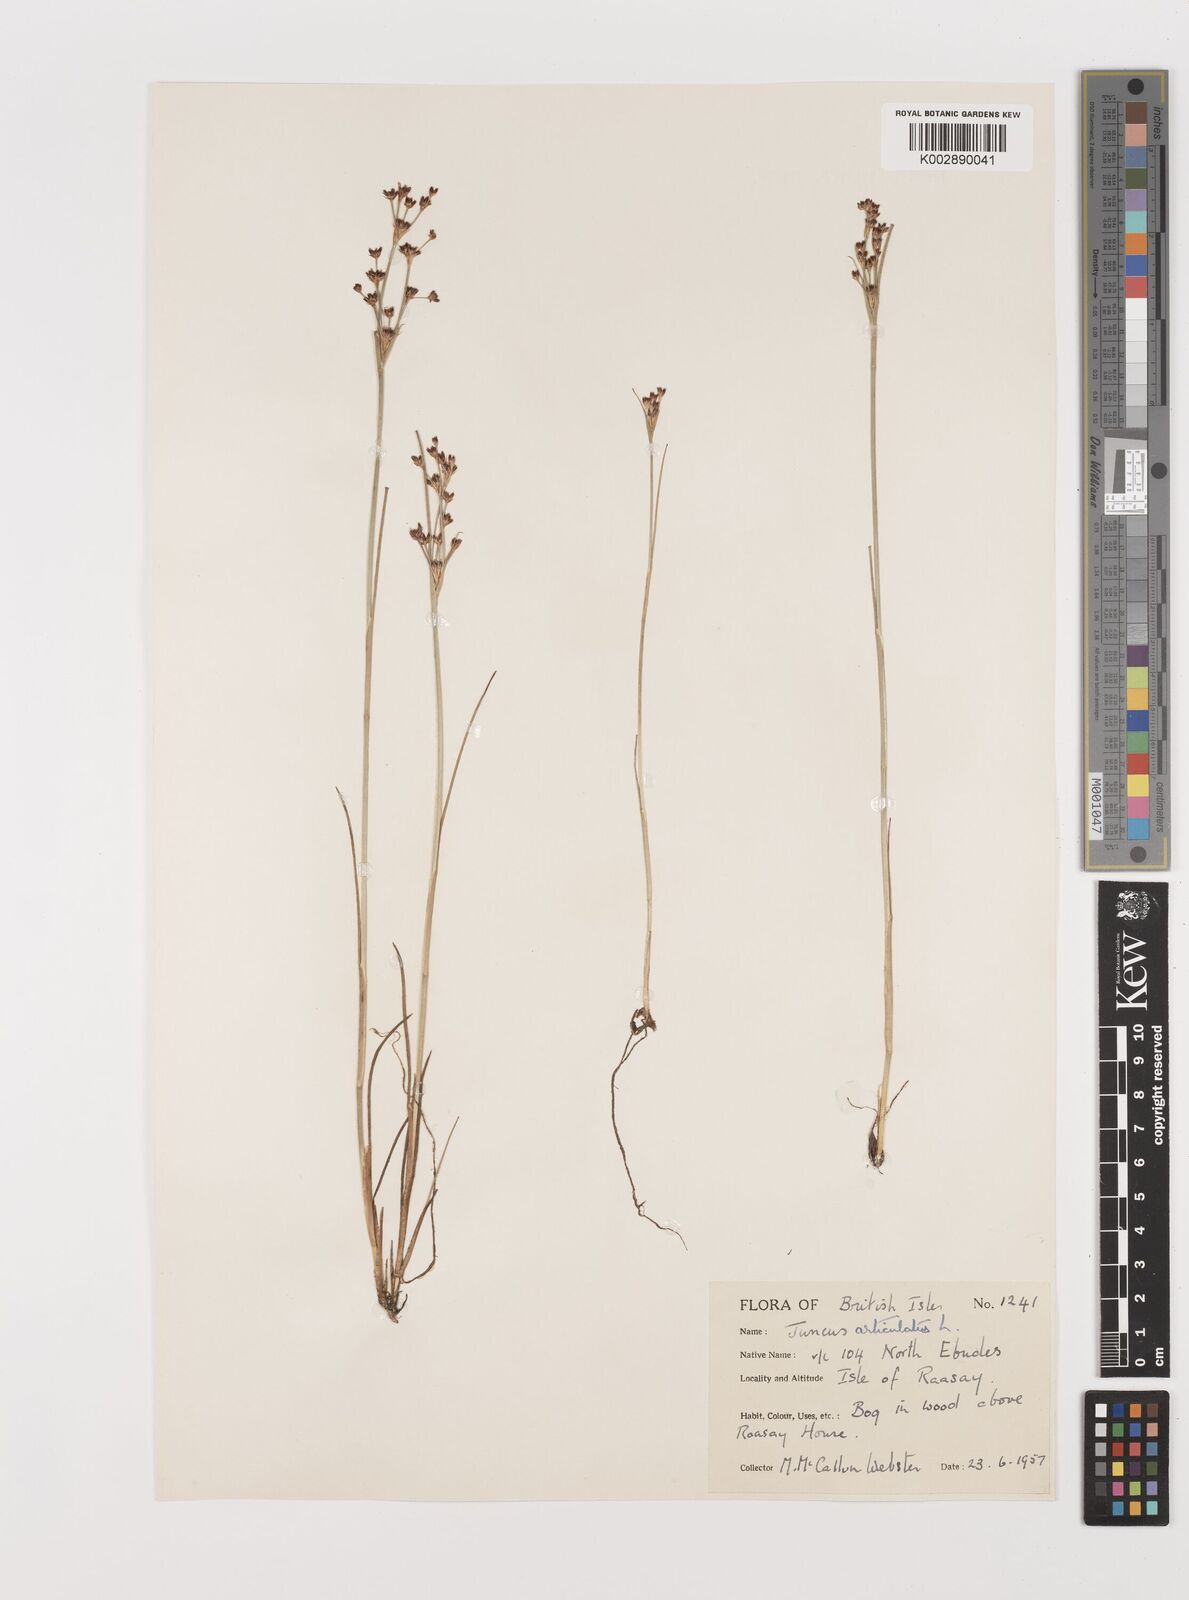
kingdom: Plantae
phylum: Tracheophyta
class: Liliopsida
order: Poales
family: Juncaceae
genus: Juncus
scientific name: Juncus articulatus
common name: Jointed rush
